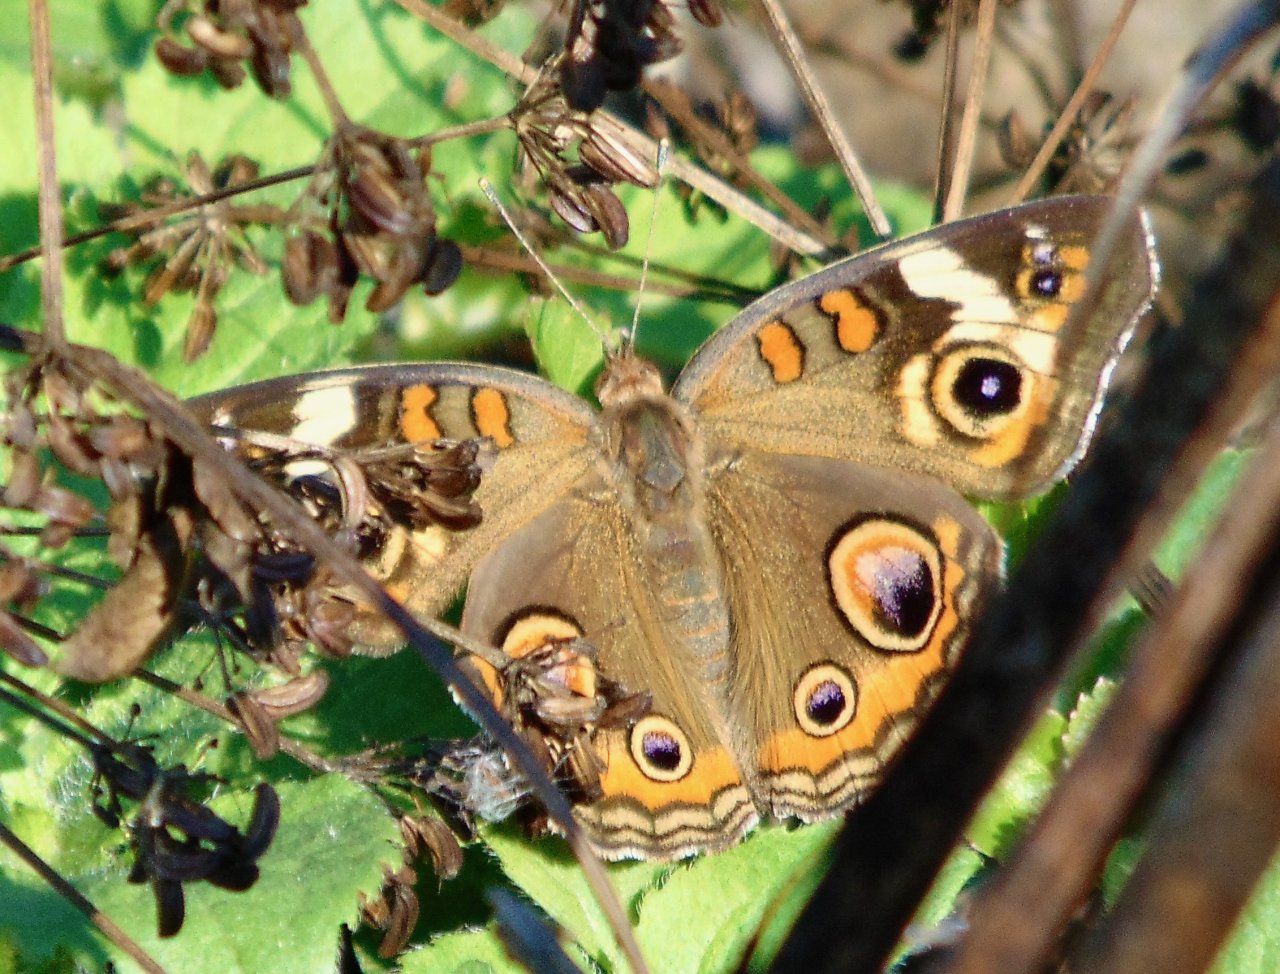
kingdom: Animalia
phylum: Arthropoda
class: Insecta
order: Lepidoptera
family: Nymphalidae
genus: Junonia
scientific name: Junonia coenia
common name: Common Buckeye
